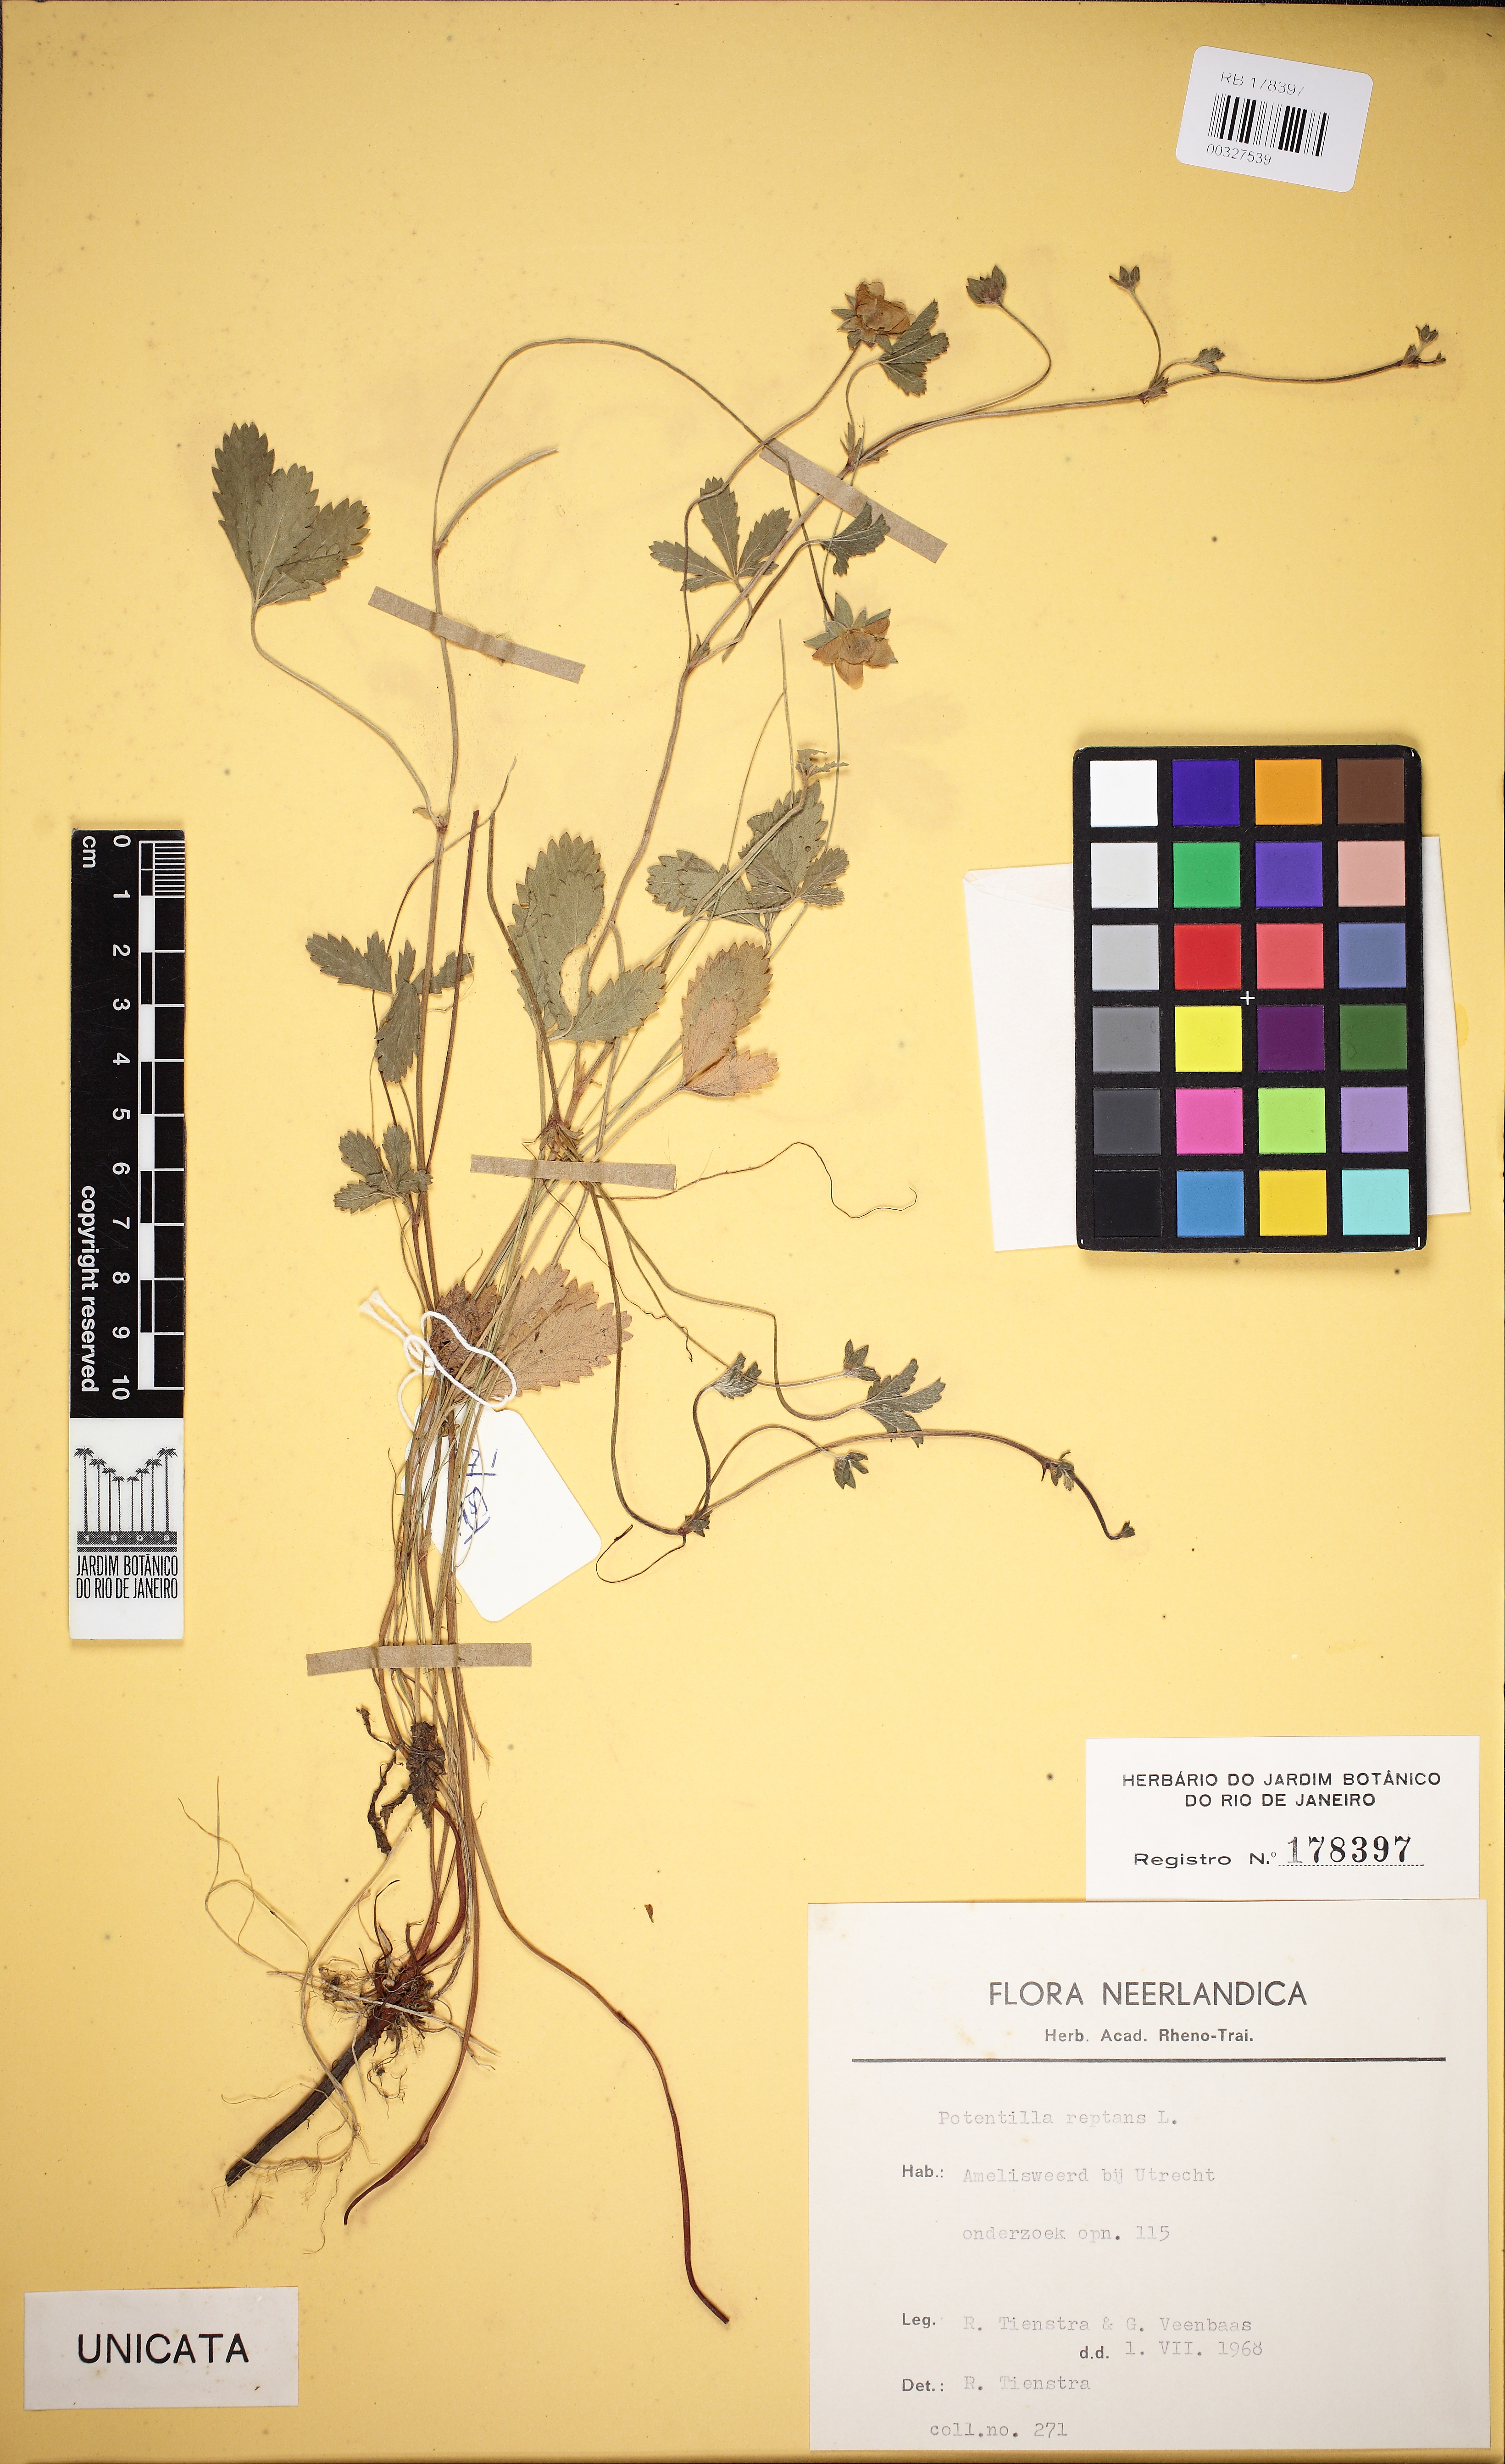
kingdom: Plantae
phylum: Tracheophyta
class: Magnoliopsida
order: Rosales
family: Rosaceae
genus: Potentilla
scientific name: Potentilla reptans
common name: Creeping cinquefoil
